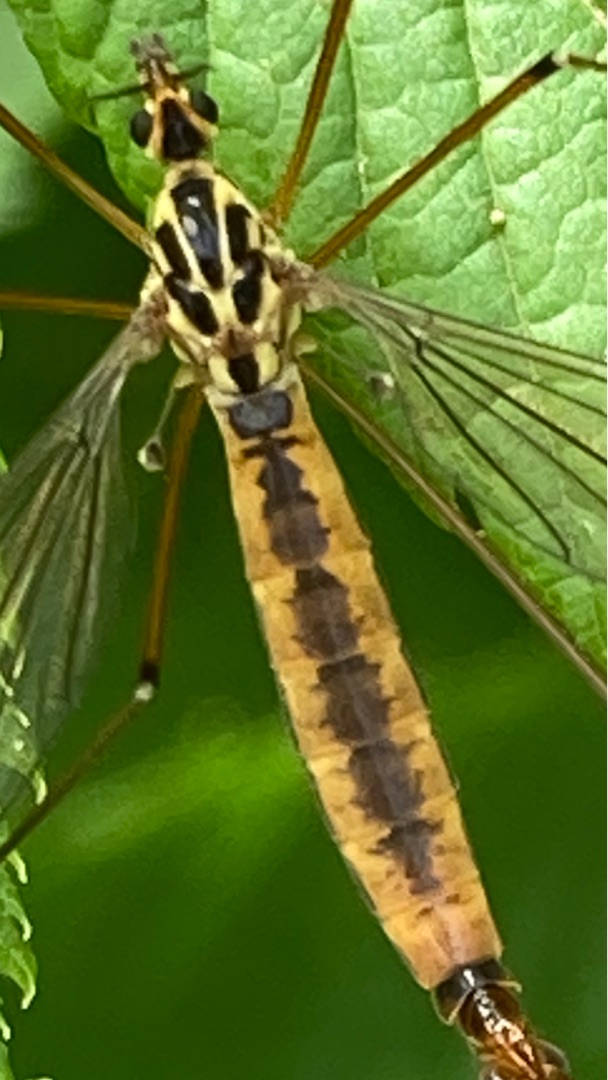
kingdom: Animalia
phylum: Arthropoda
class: Insecta
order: Diptera
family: Tipulidae
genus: Nephrotoma
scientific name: Nephrotoma cornicina
